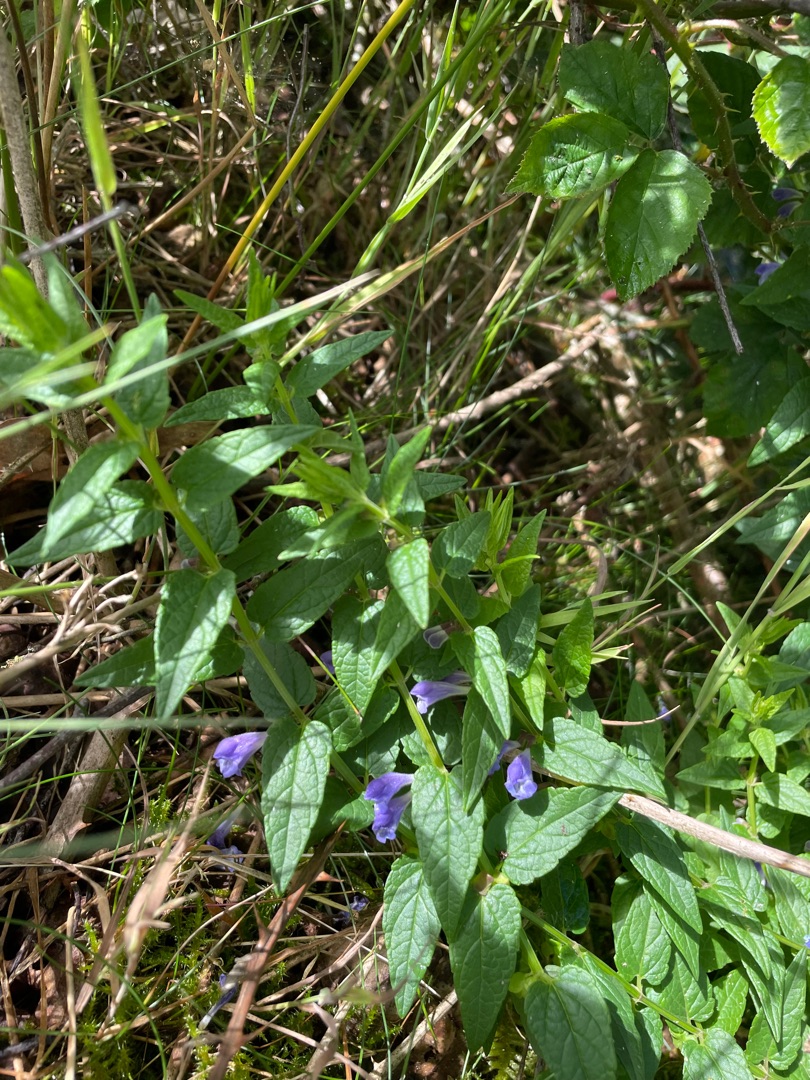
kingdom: Plantae
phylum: Tracheophyta
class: Magnoliopsida
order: Lamiales
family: Lamiaceae
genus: Scutellaria
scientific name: Scutellaria galericulata
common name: Almindelig skjolddrager
